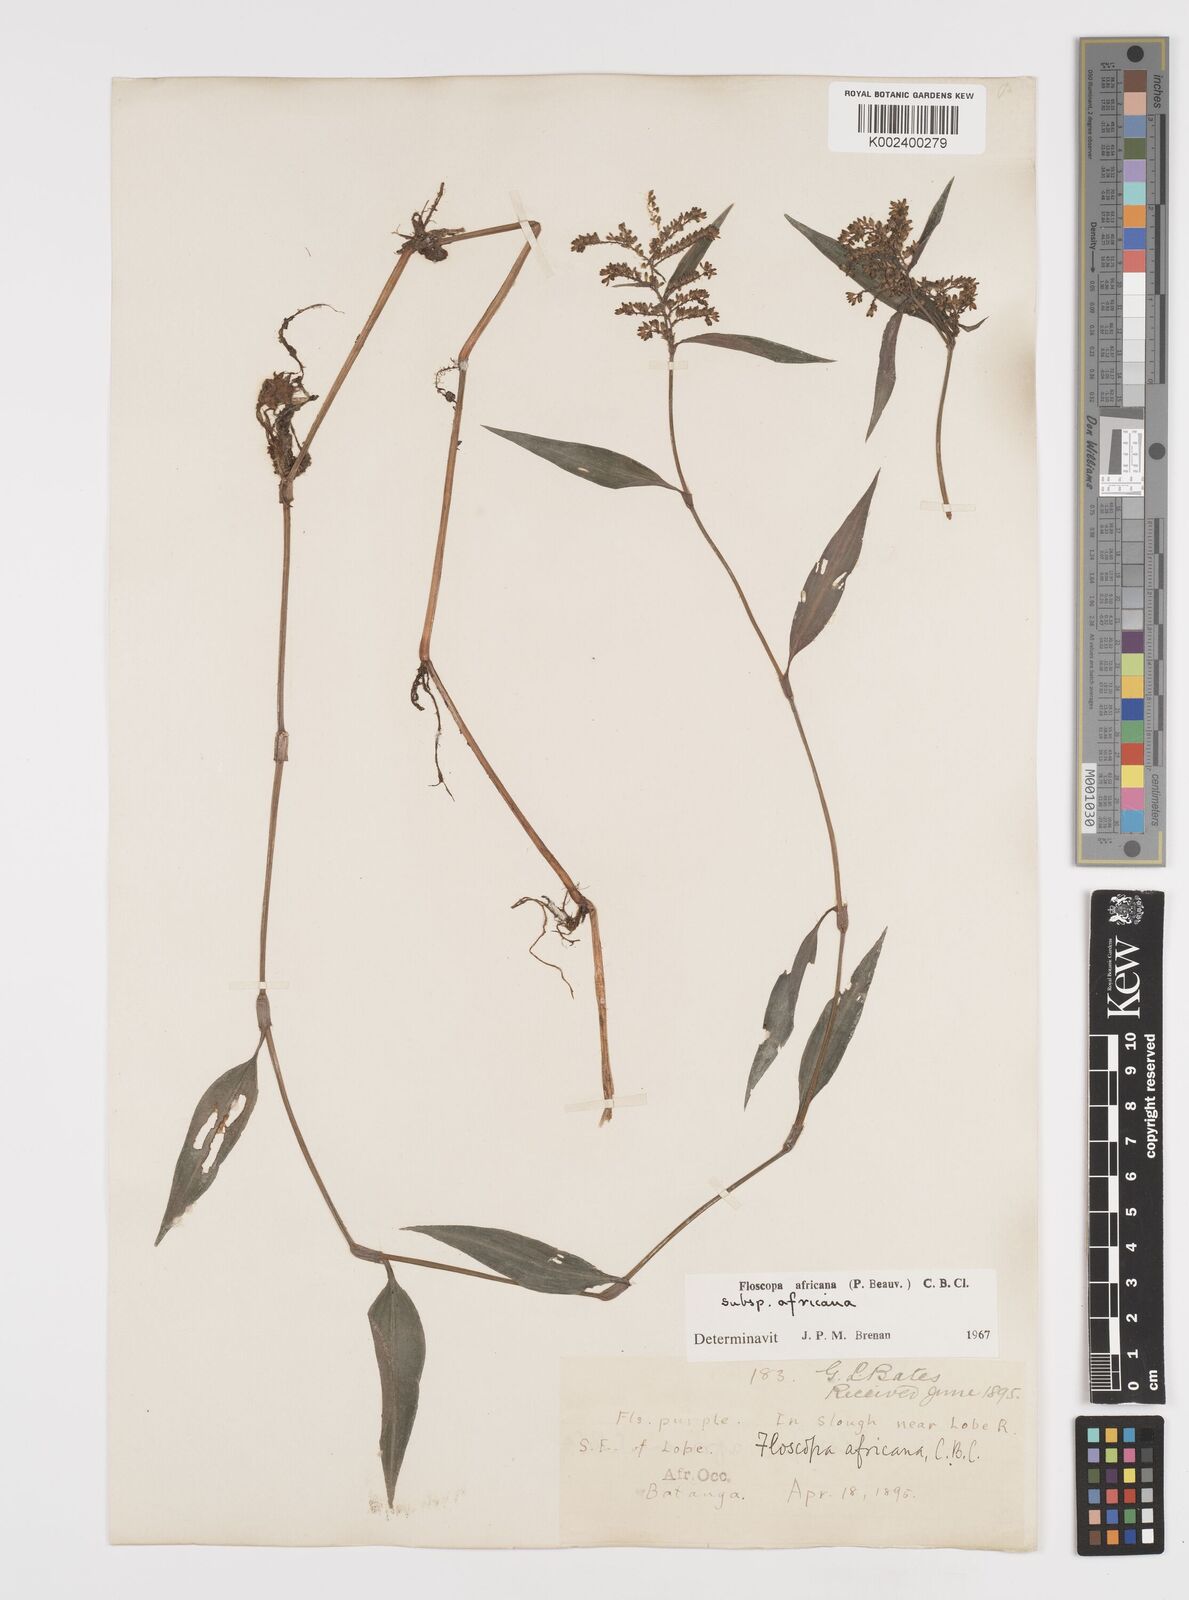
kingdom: Plantae
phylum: Tracheophyta
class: Liliopsida
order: Commelinales
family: Commelinaceae
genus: Floscopa
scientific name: Floscopa africana
